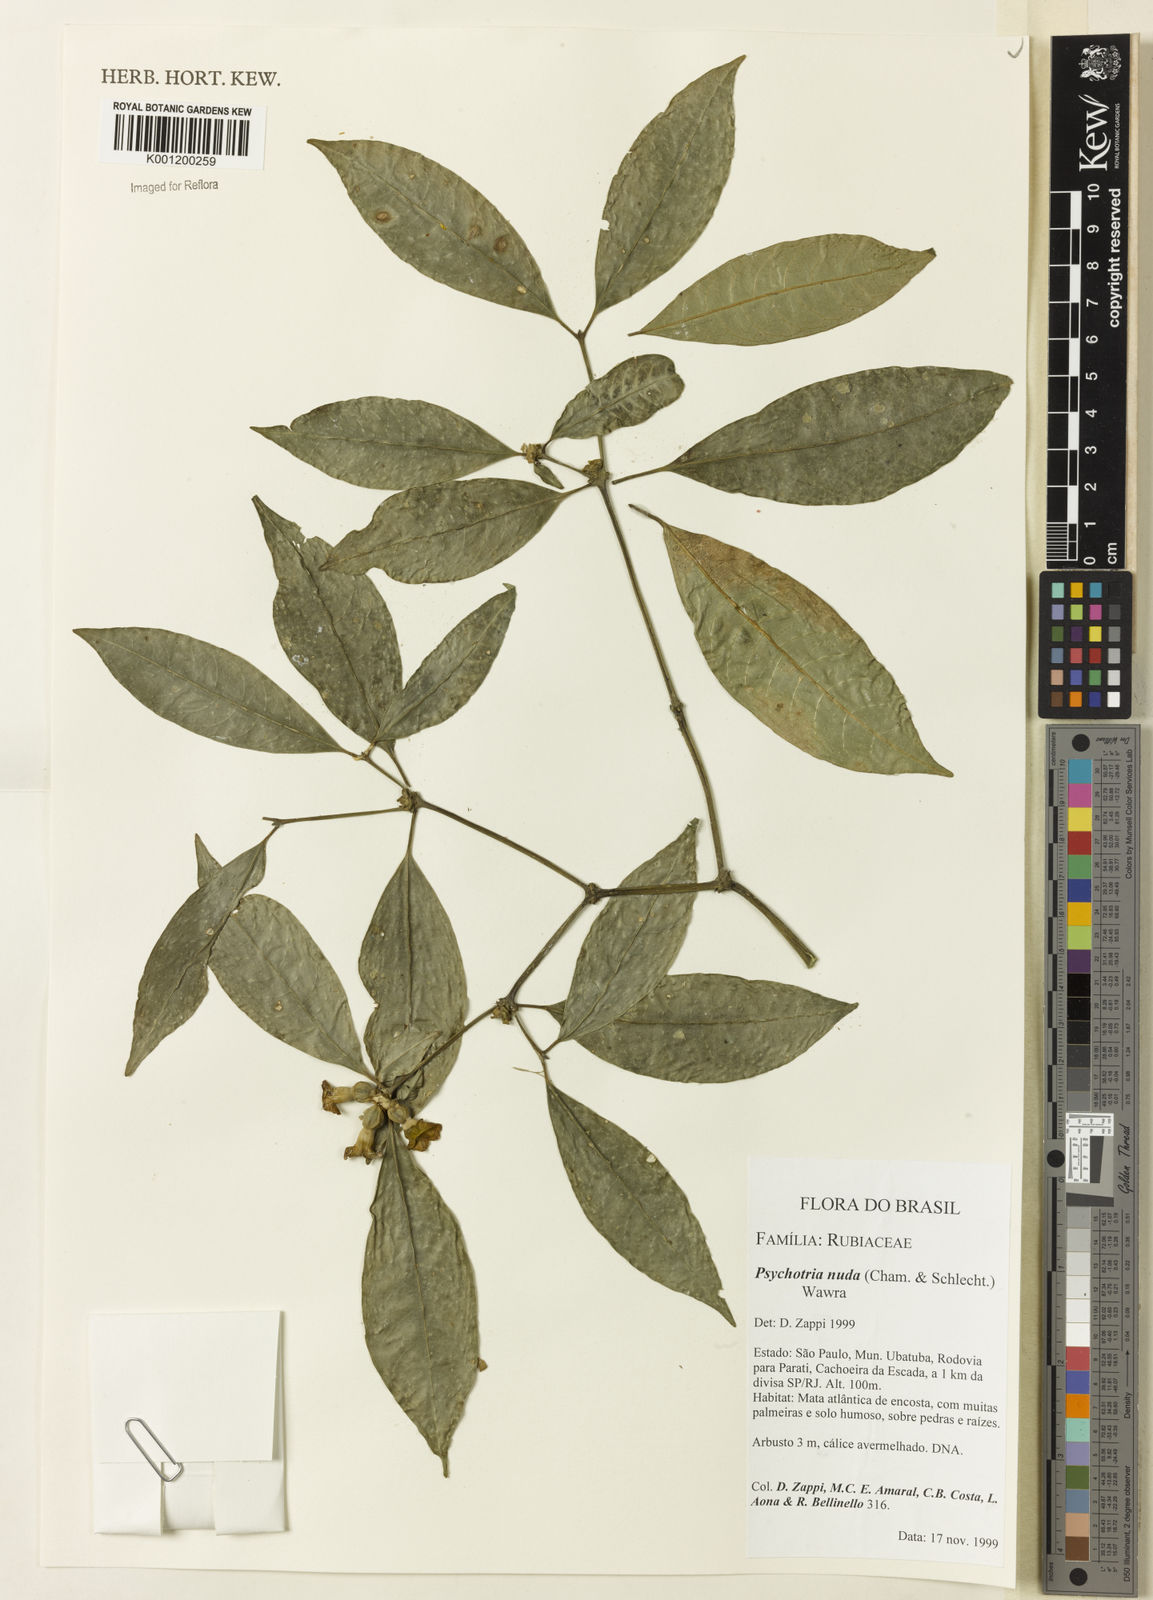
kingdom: Plantae
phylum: Tracheophyta
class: Magnoliopsida
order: Gentianales
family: Rubiaceae
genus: Psychotria
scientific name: Psychotria nuda
